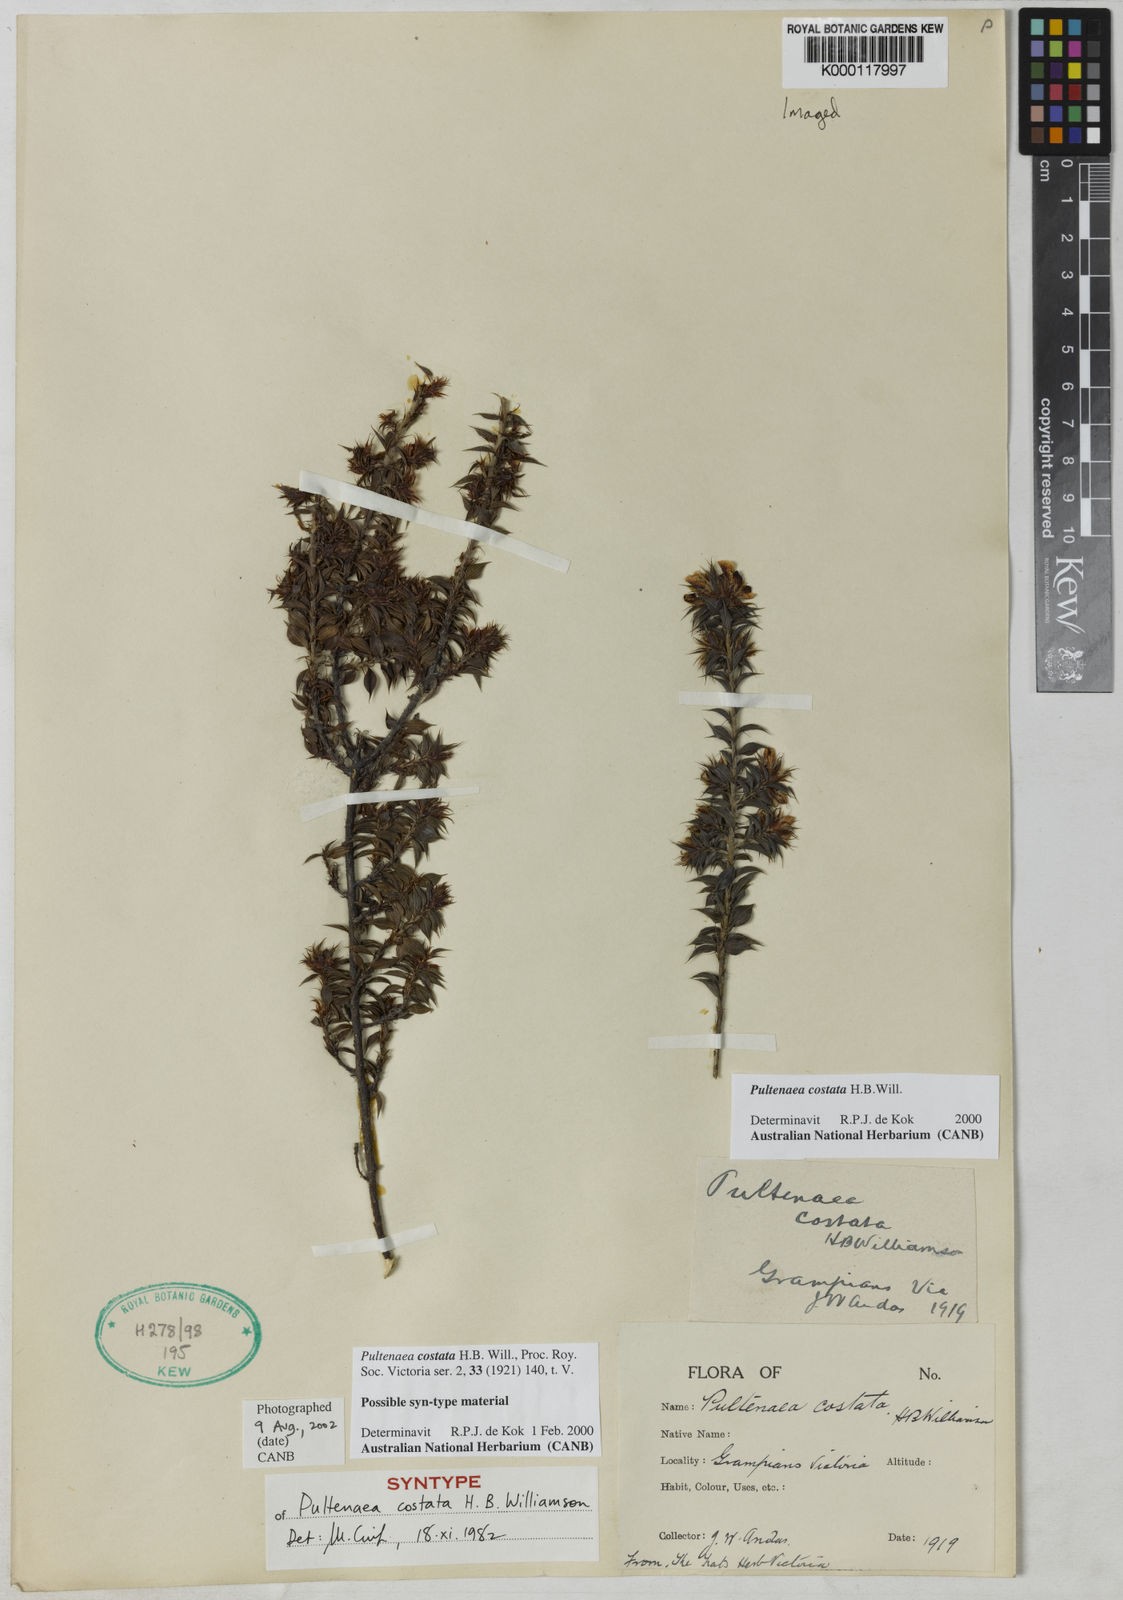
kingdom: Plantae
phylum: Tracheophyta
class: Magnoliopsida
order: Fabales
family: Fabaceae
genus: Pultenaea
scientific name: Pultenaea costata
